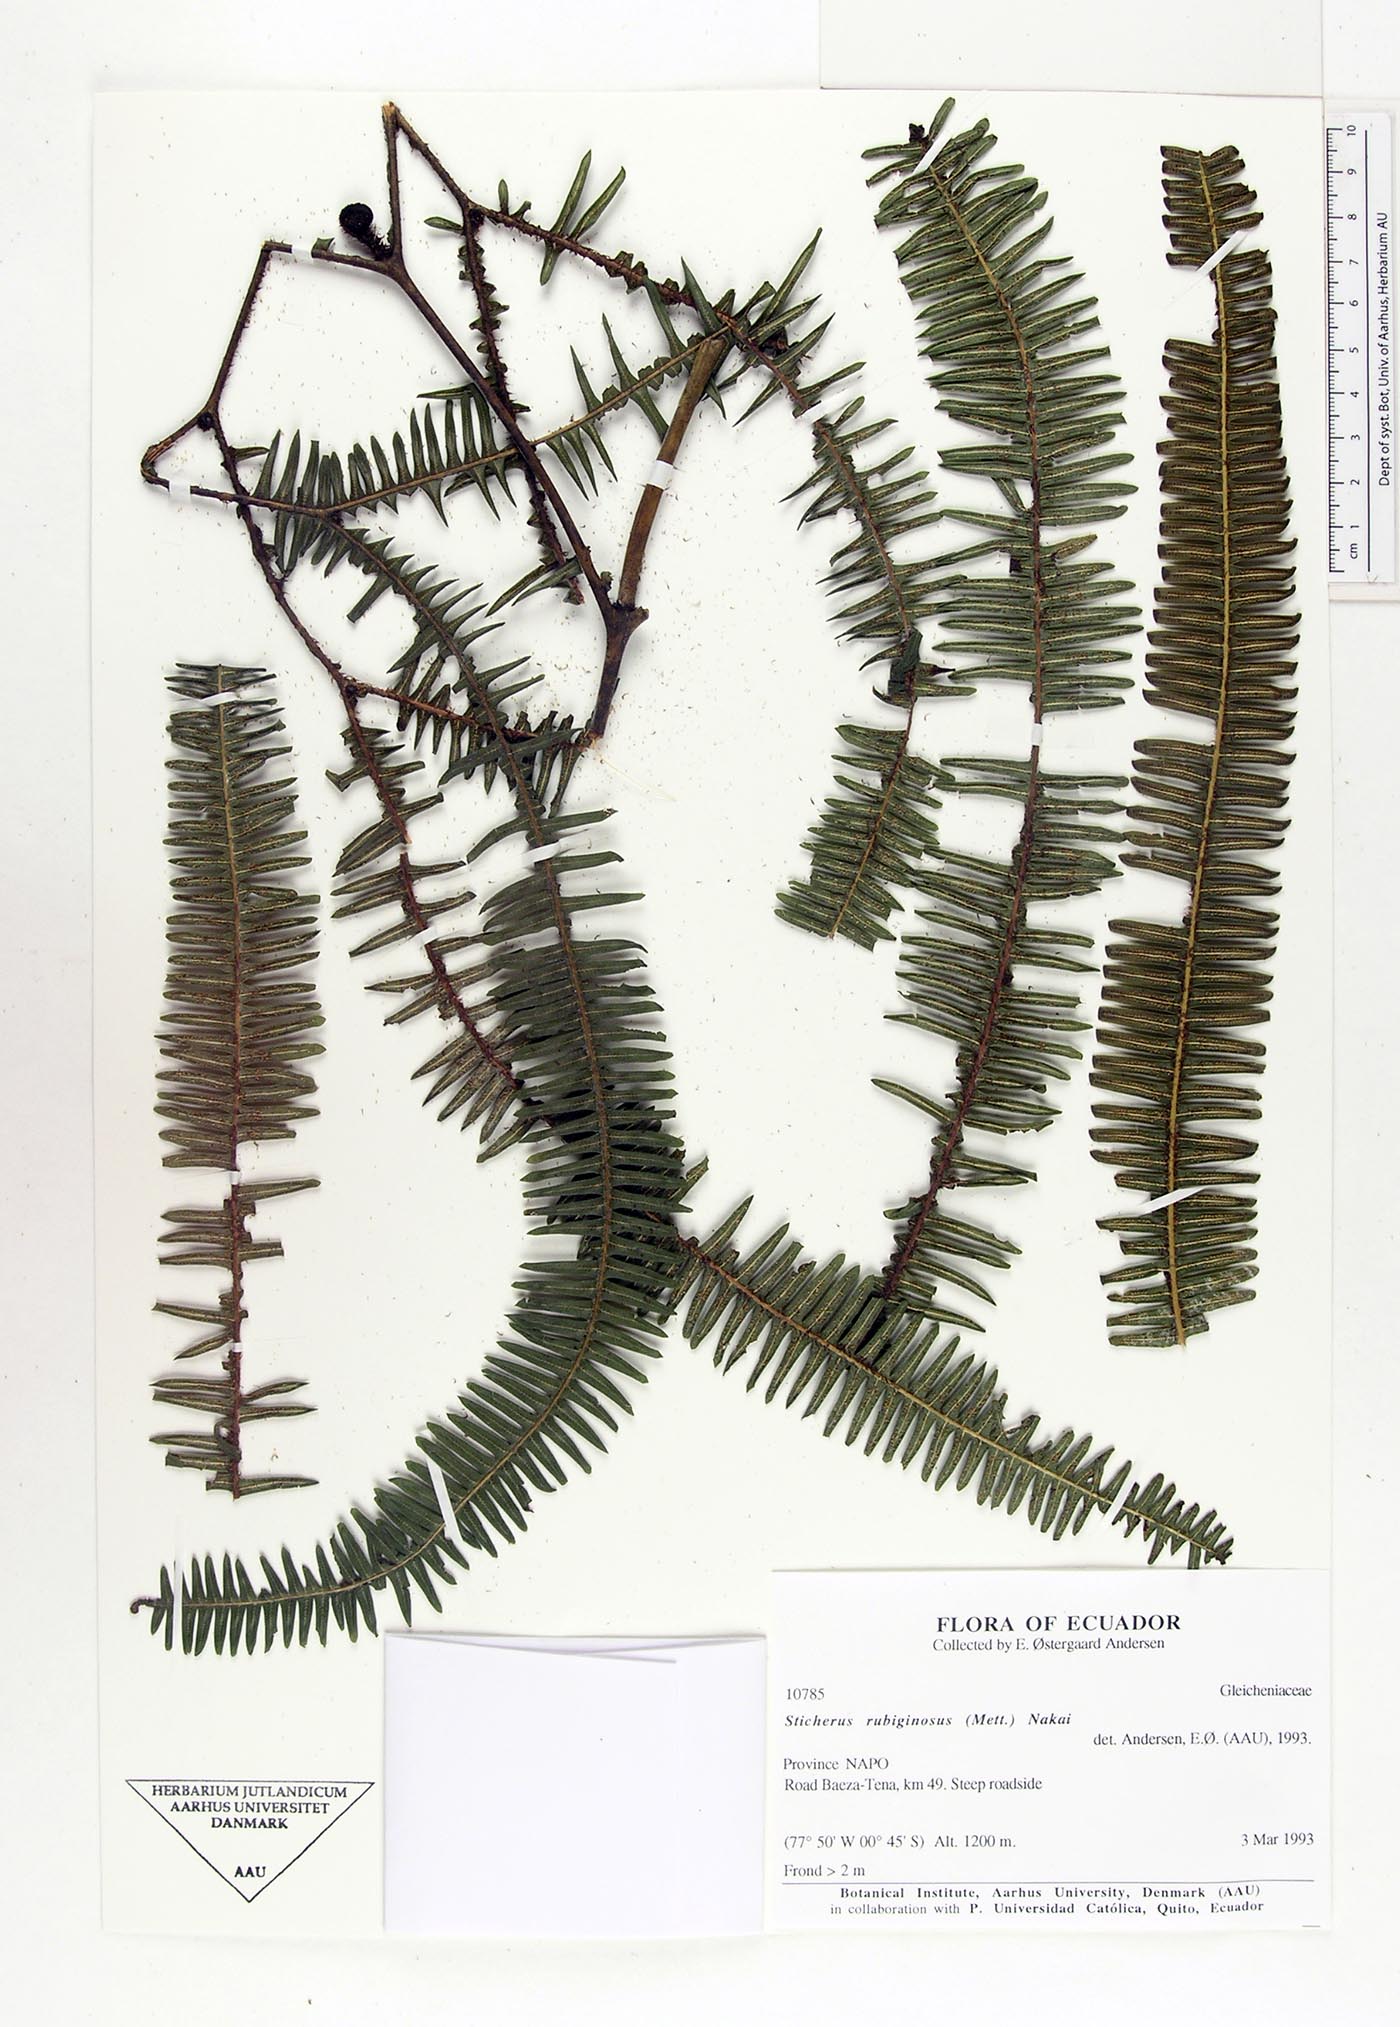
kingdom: Plantae
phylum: Tracheophyta
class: Polypodiopsida
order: Gleicheniales
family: Gleicheniaceae
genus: Sticherus
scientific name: Sticherus rubiginosus
